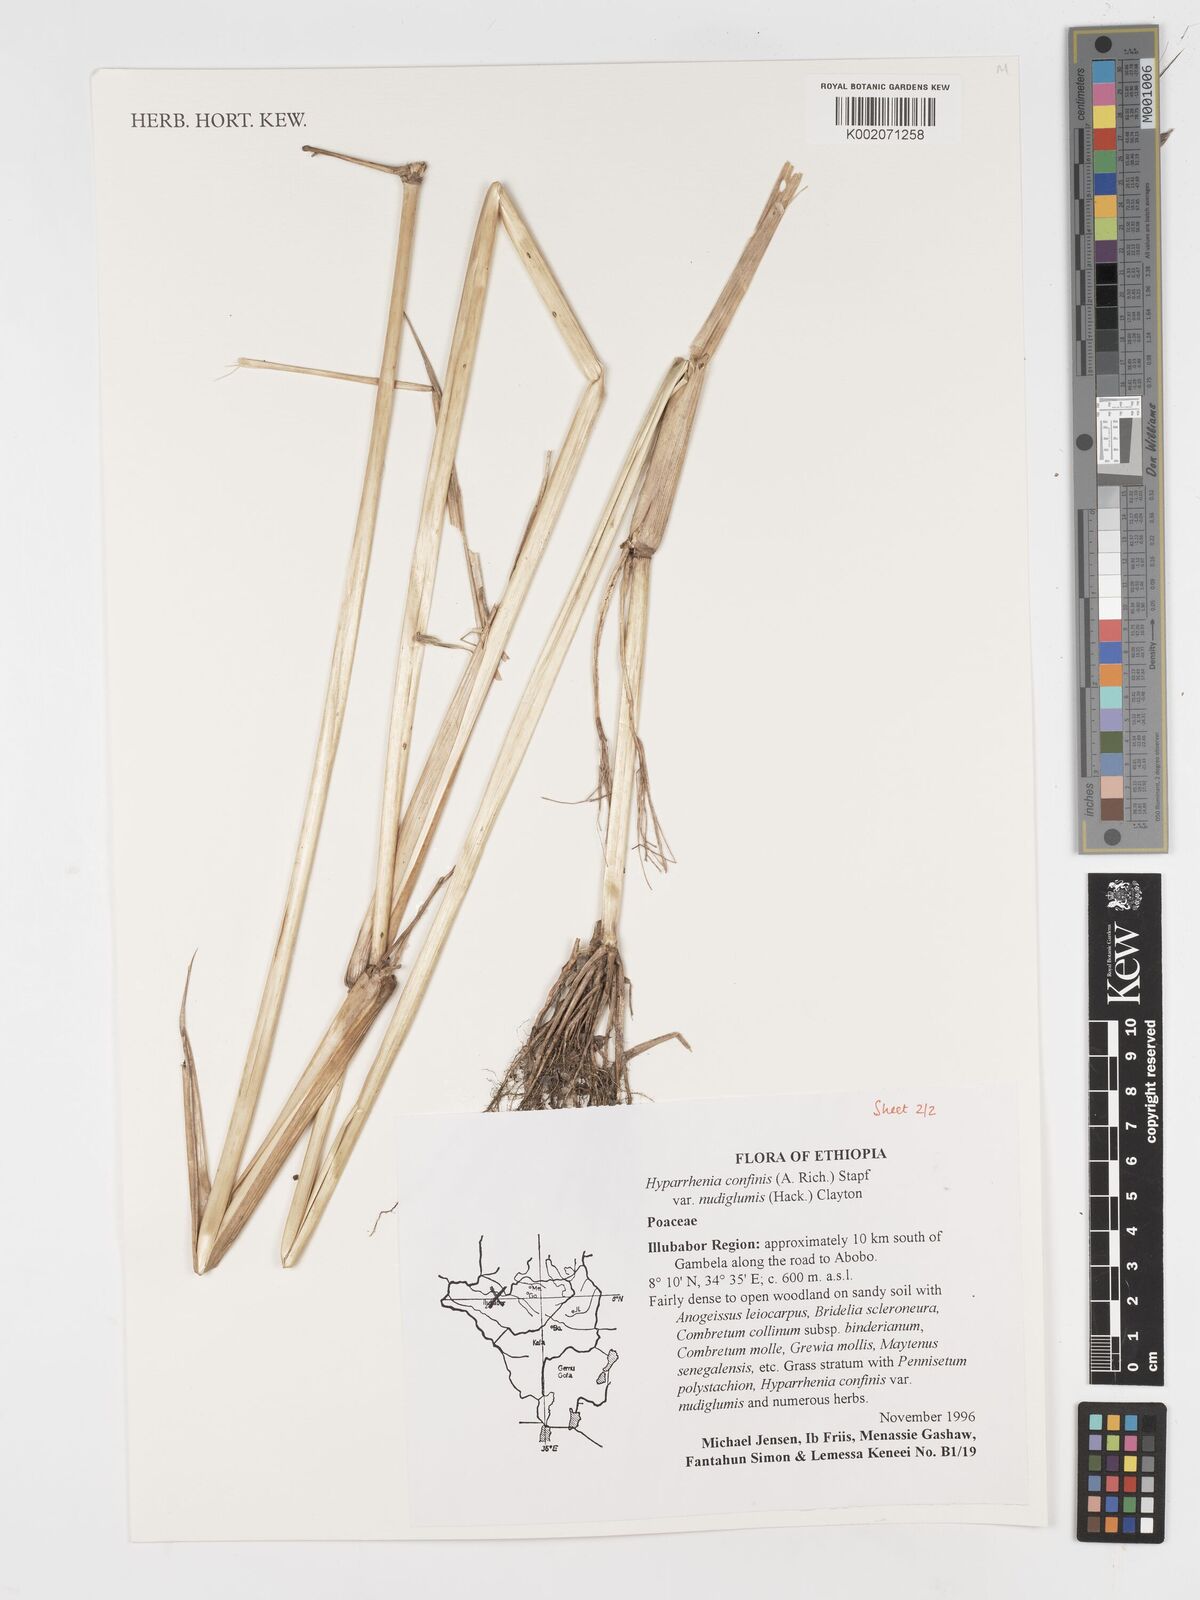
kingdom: Plantae
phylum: Tracheophyta
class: Liliopsida
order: Poales
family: Poaceae
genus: Hyparrhenia
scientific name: Hyparrhenia confinis
